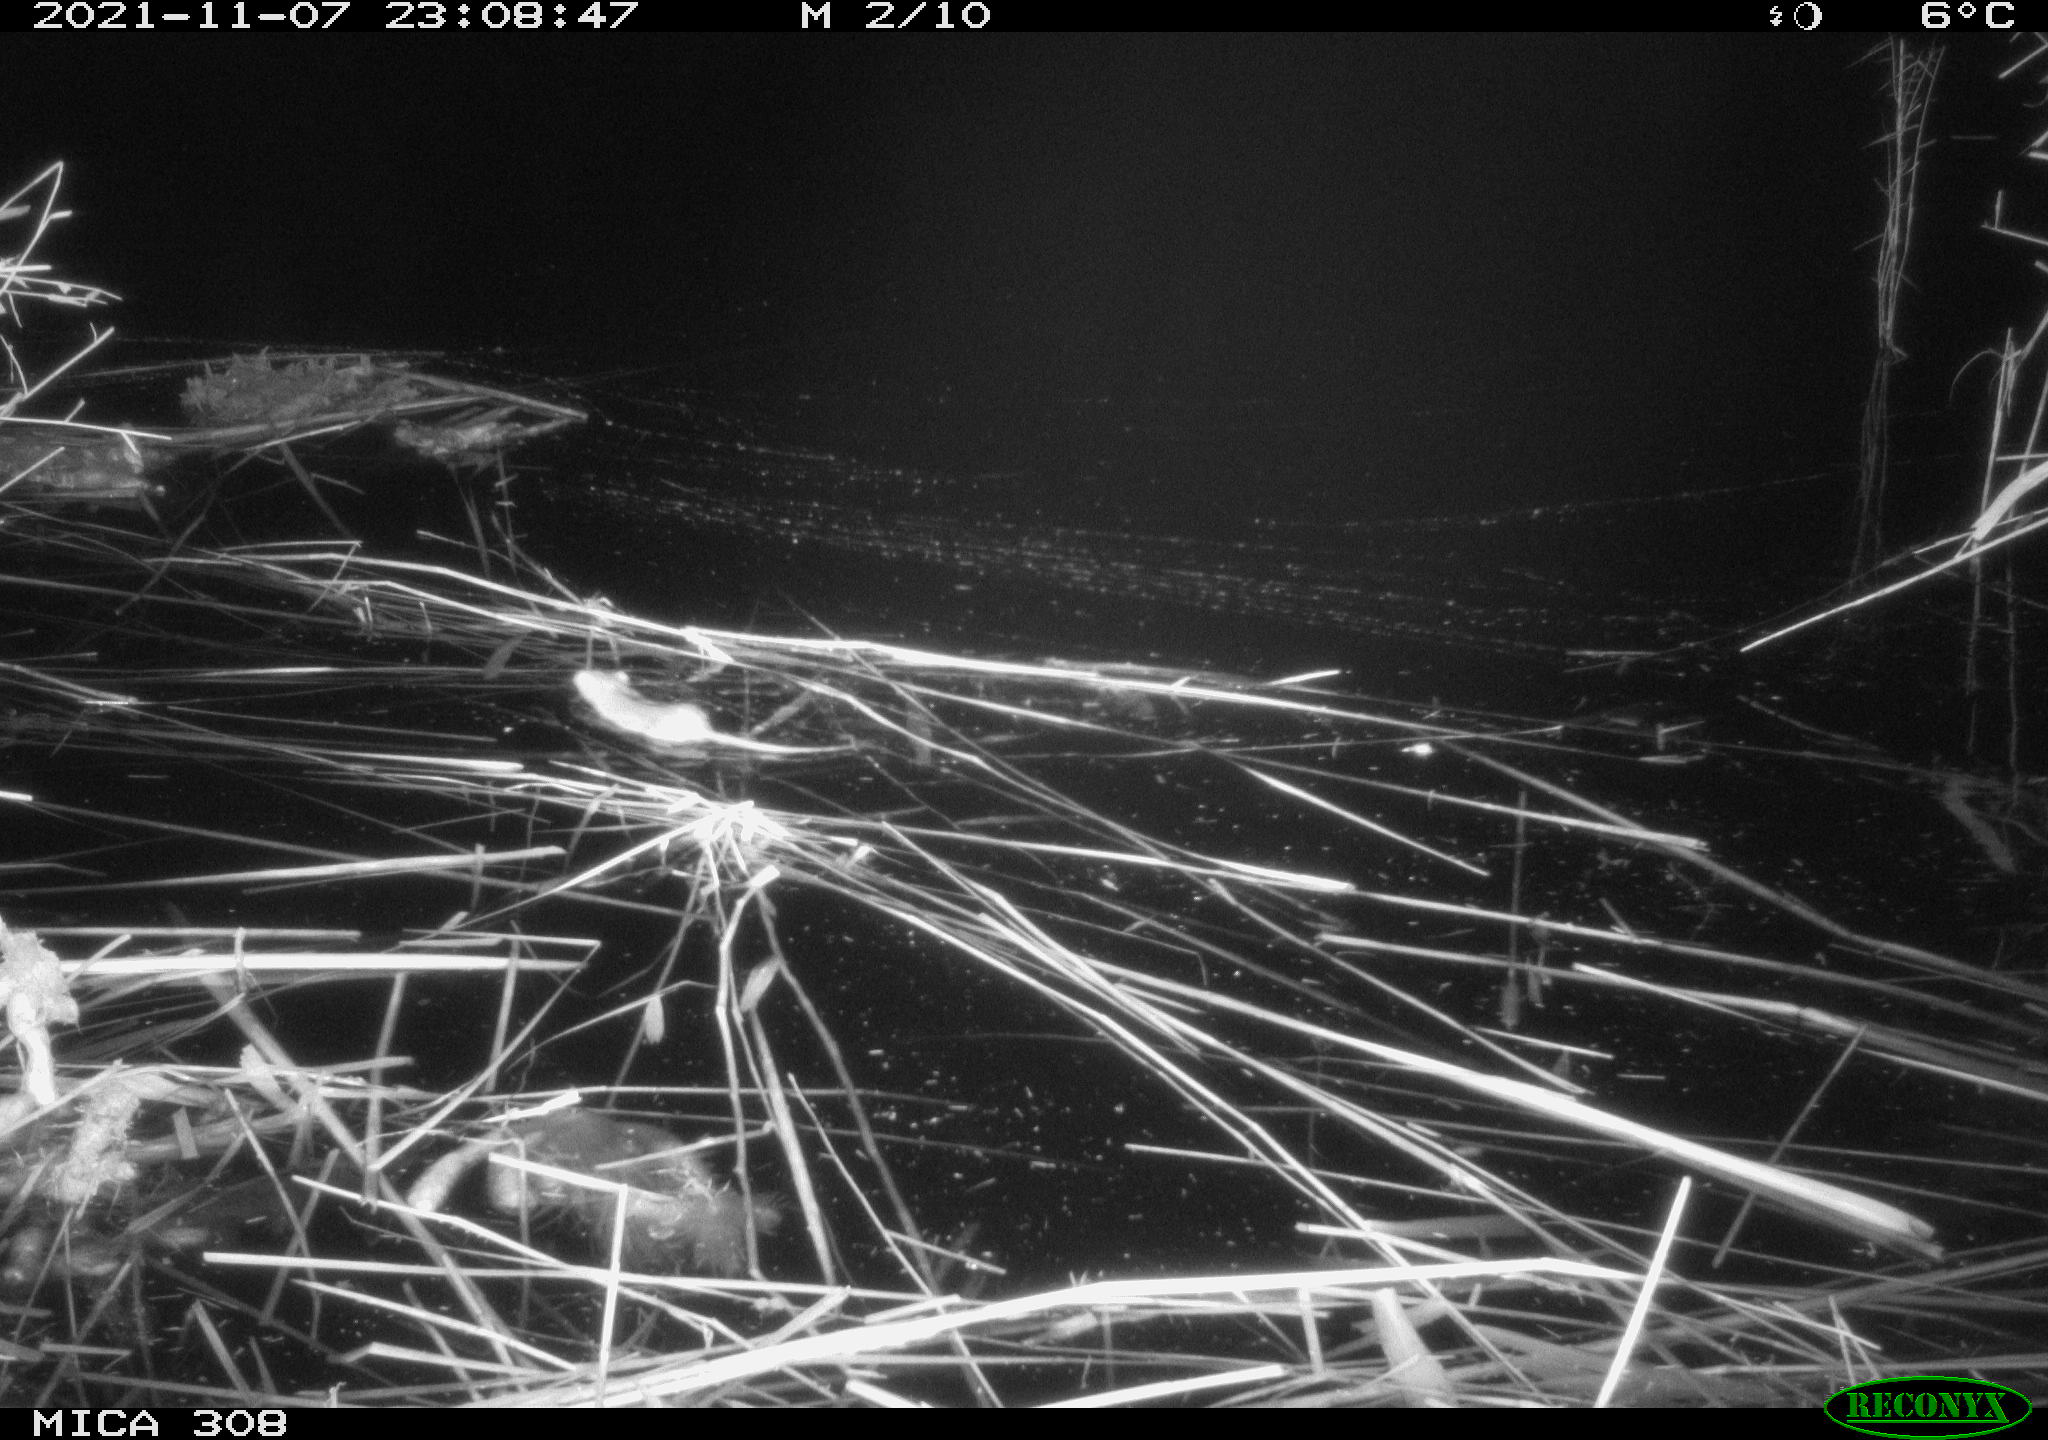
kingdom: Animalia
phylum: Chordata
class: Mammalia
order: Rodentia
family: Muridae
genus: Rattus
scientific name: Rattus norvegicus
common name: Brown rat
